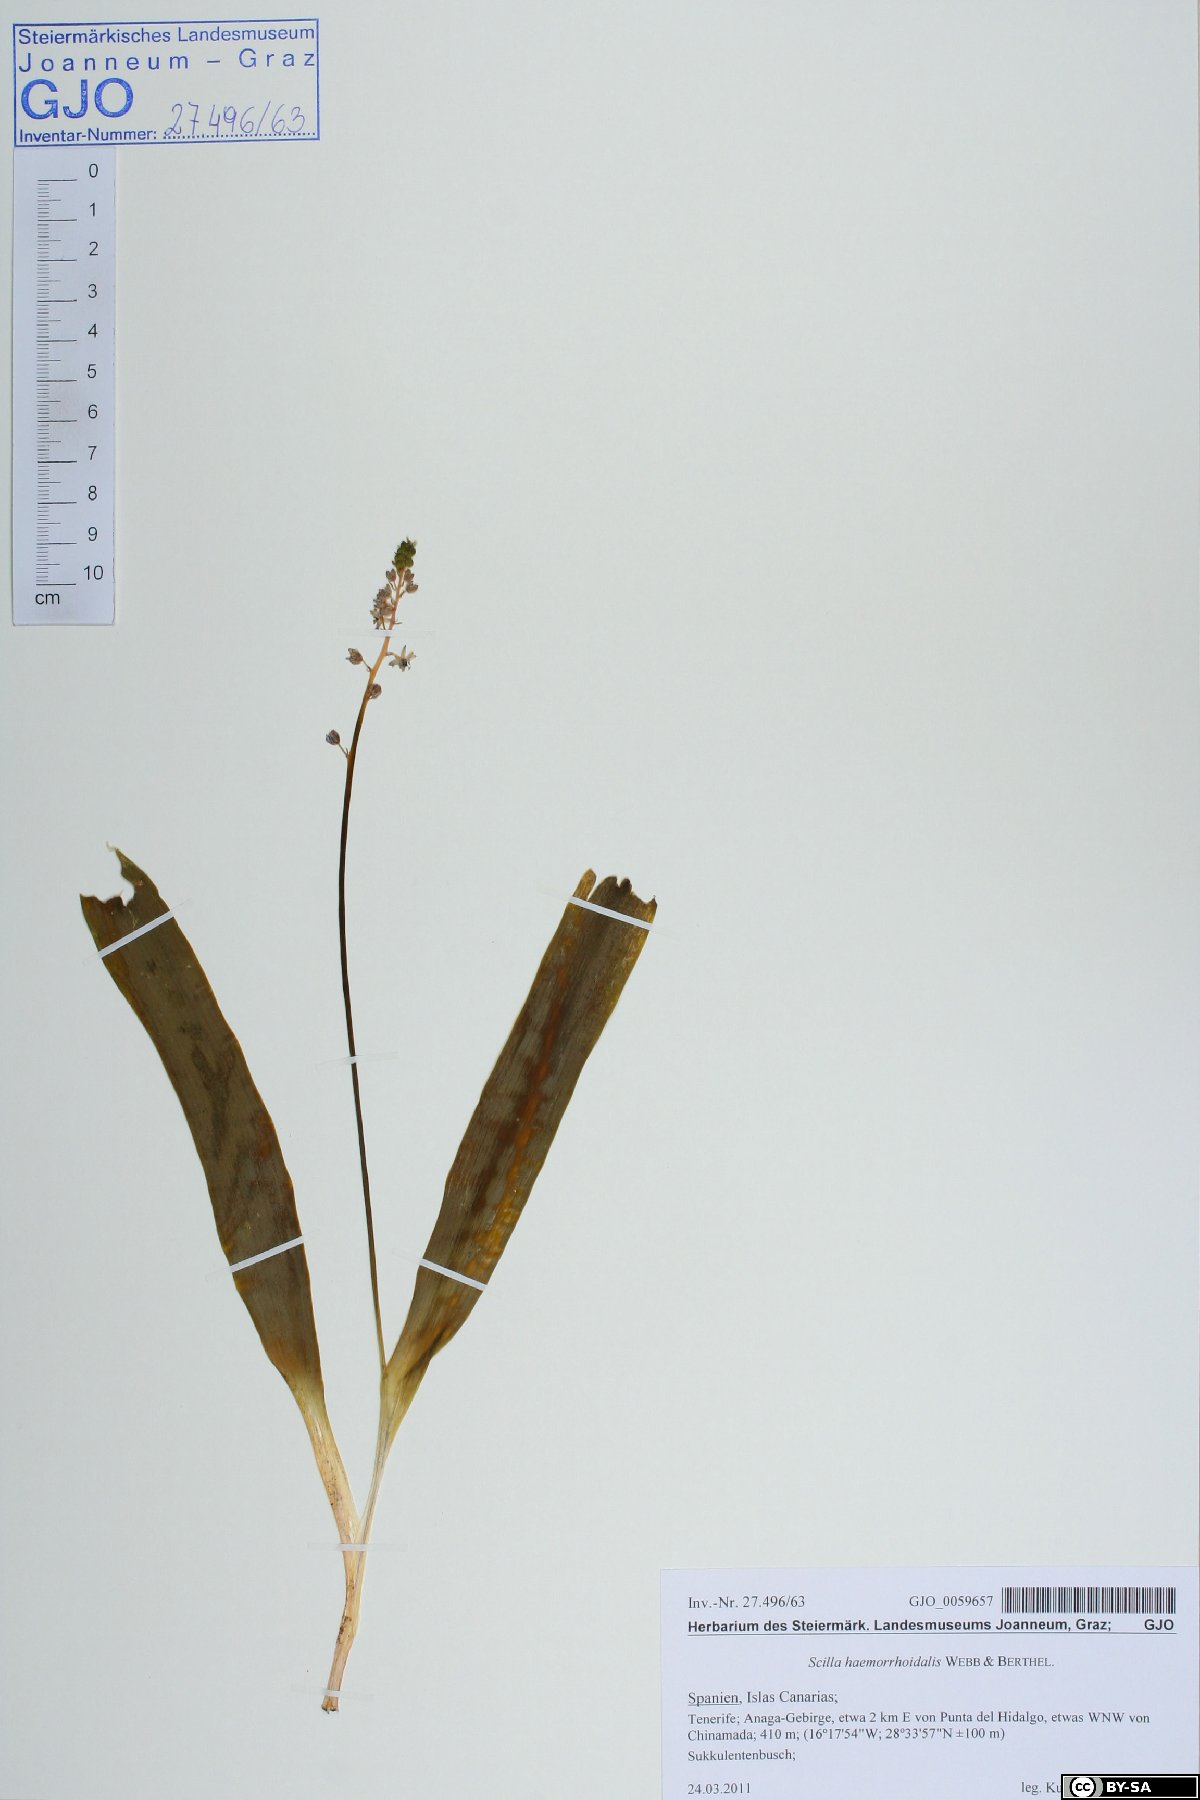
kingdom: Plantae
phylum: Tracheophyta
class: Liliopsida
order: Asparagales
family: Asparagaceae
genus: Scilla
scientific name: Scilla haemorrhoidalis
